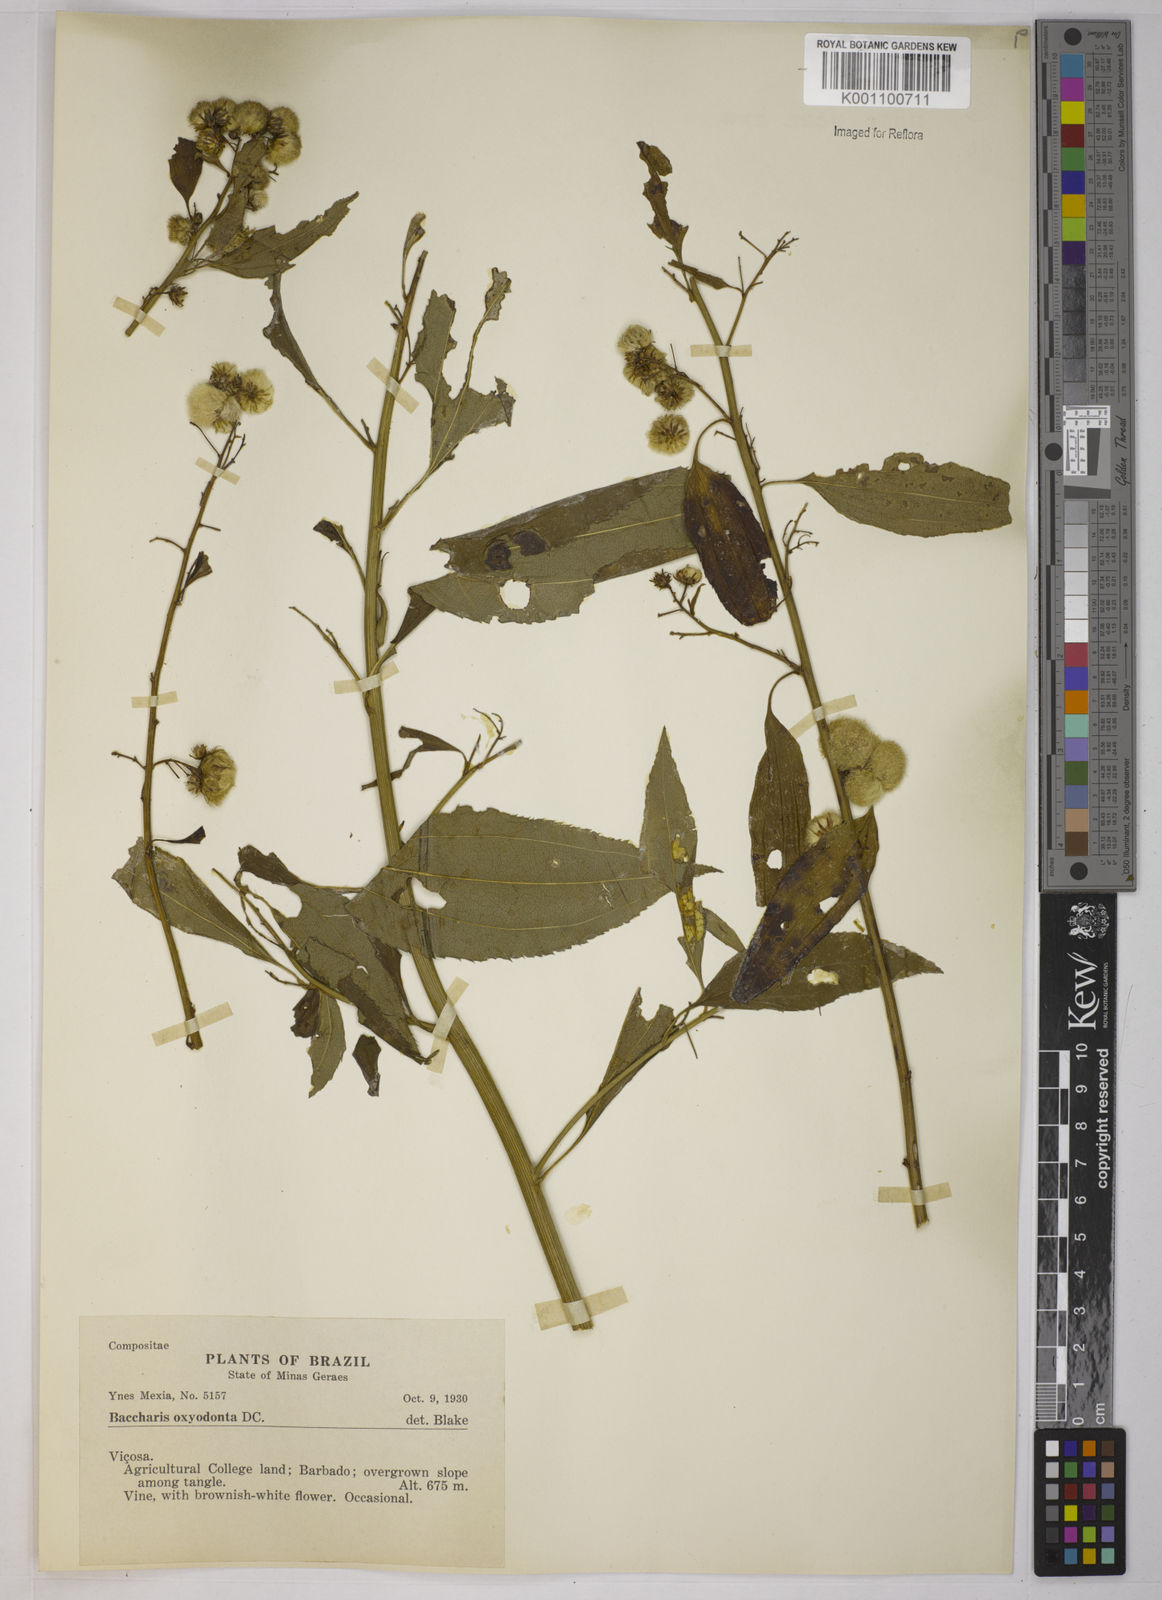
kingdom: Plantae
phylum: Tracheophyta
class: Magnoliopsida
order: Asterales
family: Asteraceae
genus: Baccharis
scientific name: Baccharis oxyodonta
